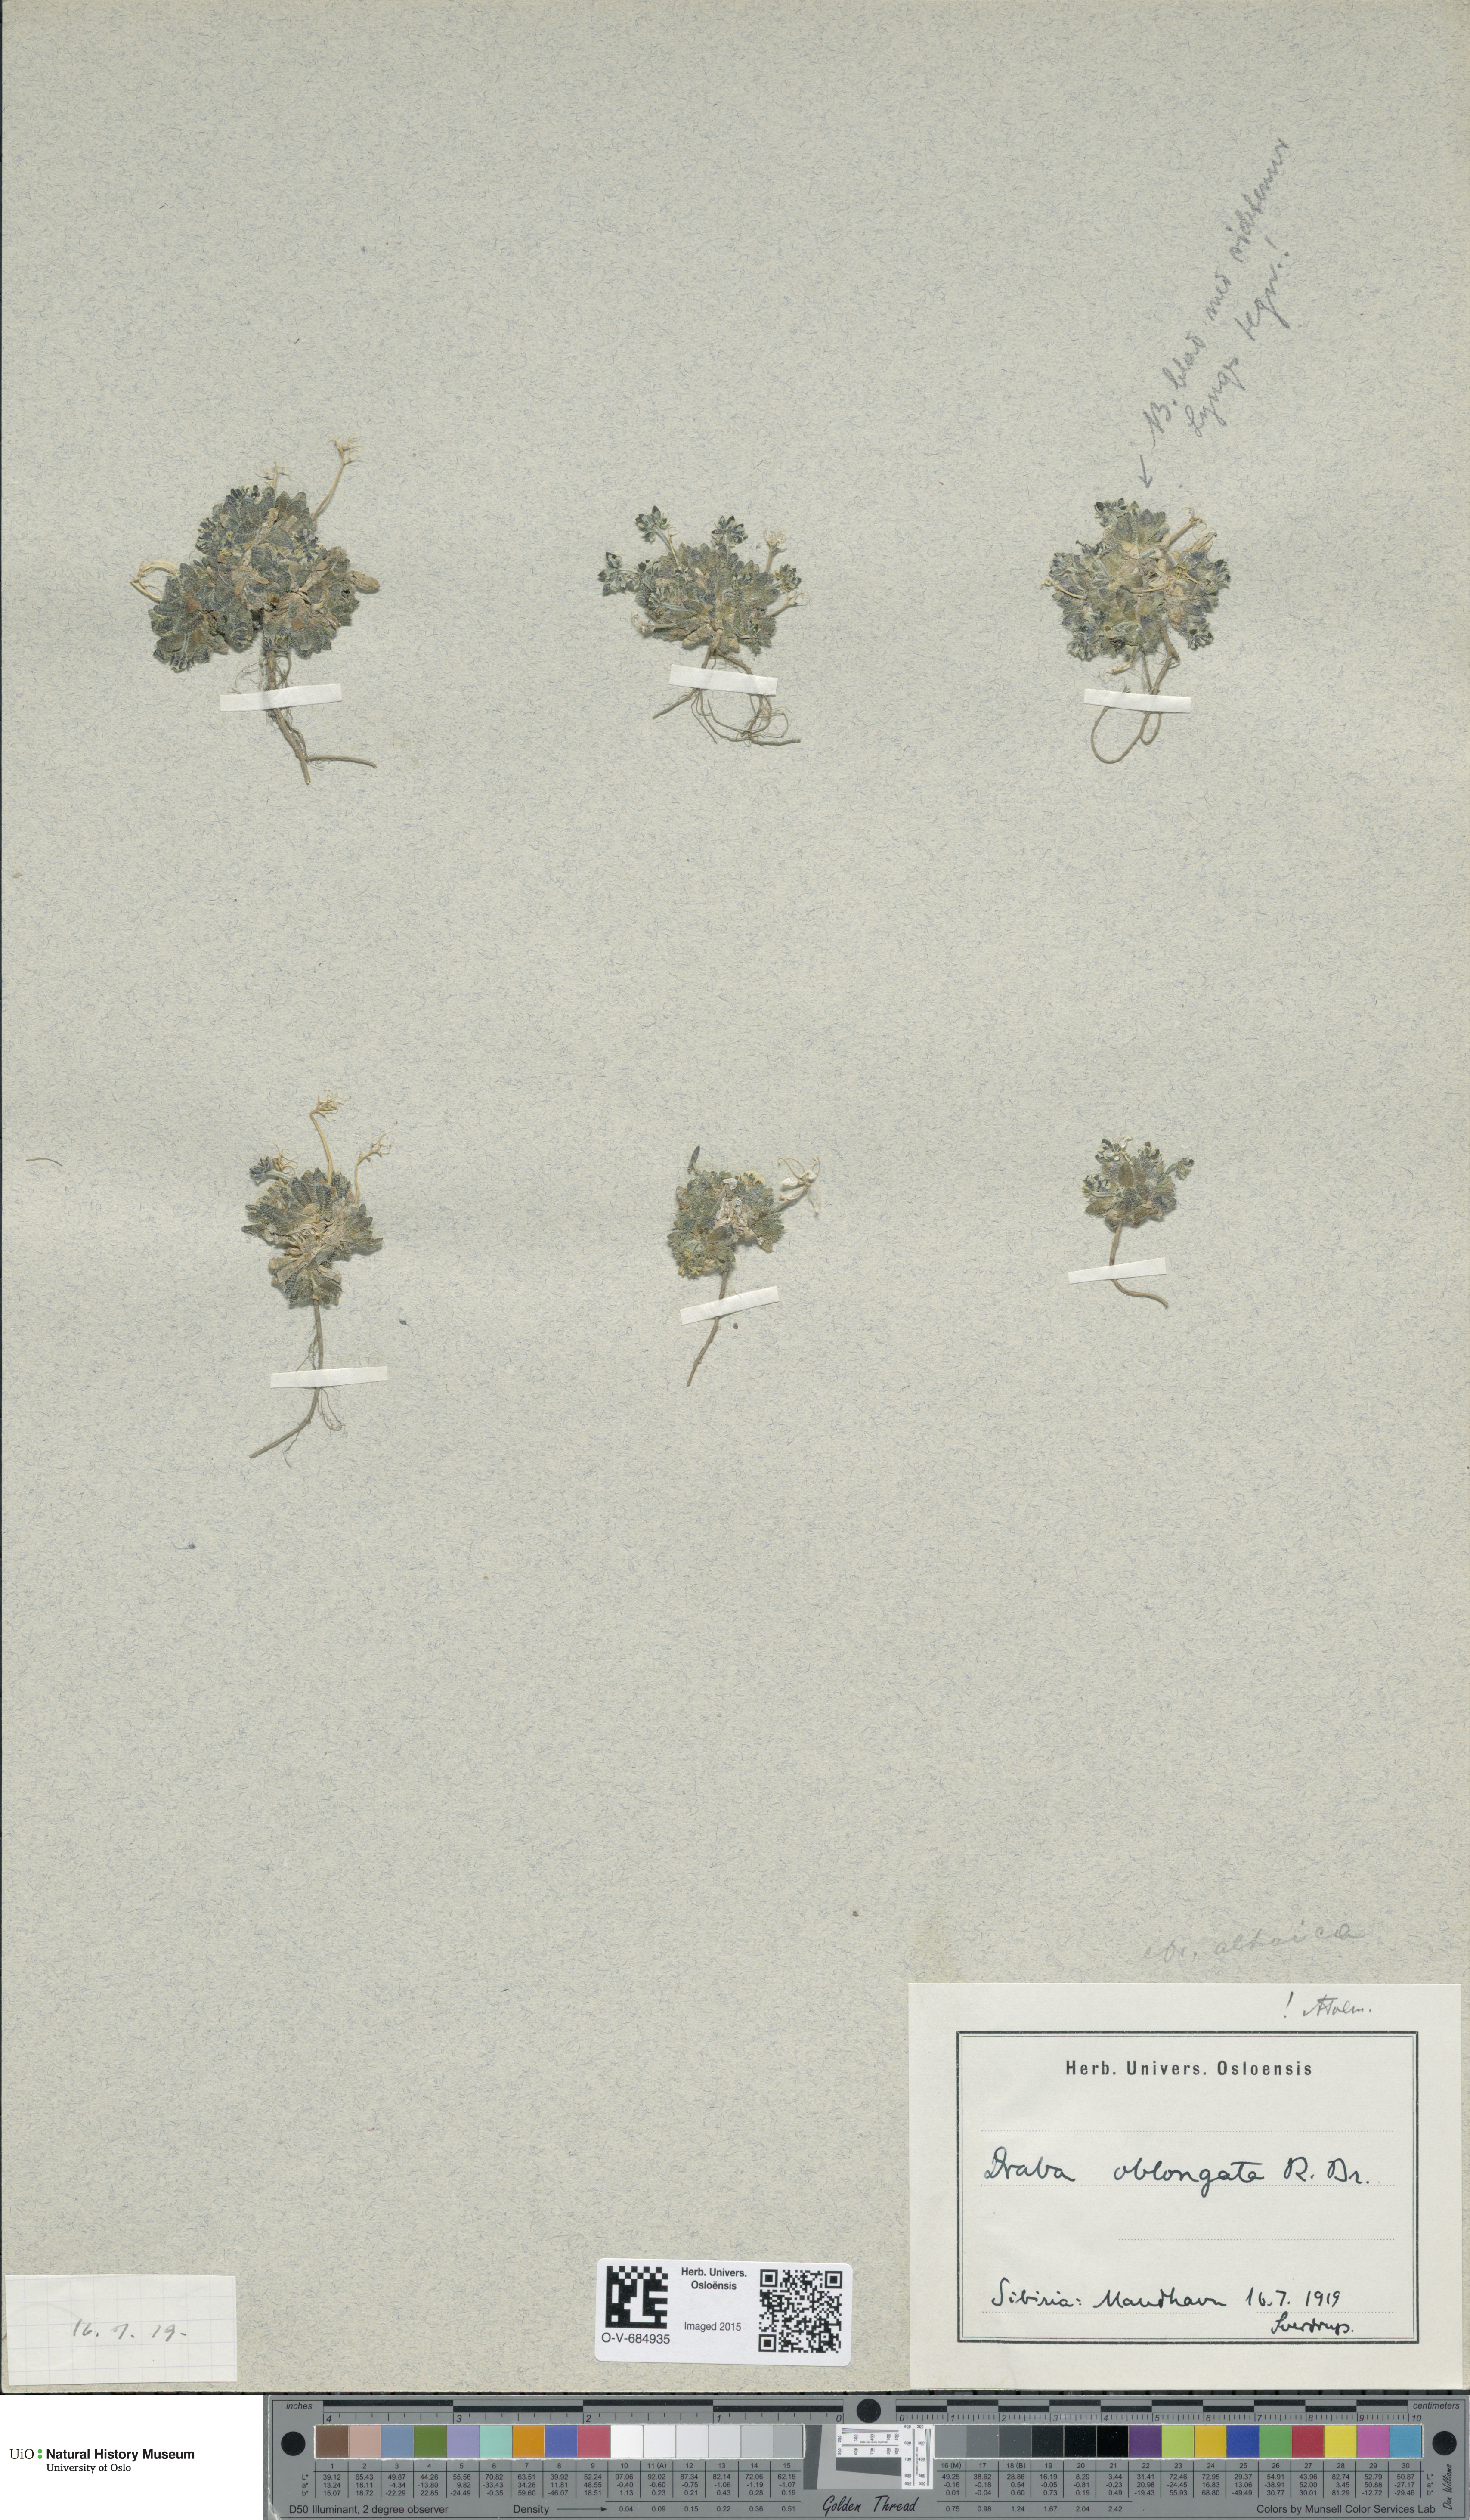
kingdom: Plantae
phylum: Tracheophyta
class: Magnoliopsida
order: Brassicales
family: Brassicaceae
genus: Draba
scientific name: Draba oblongata
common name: Canadian arctic draba
